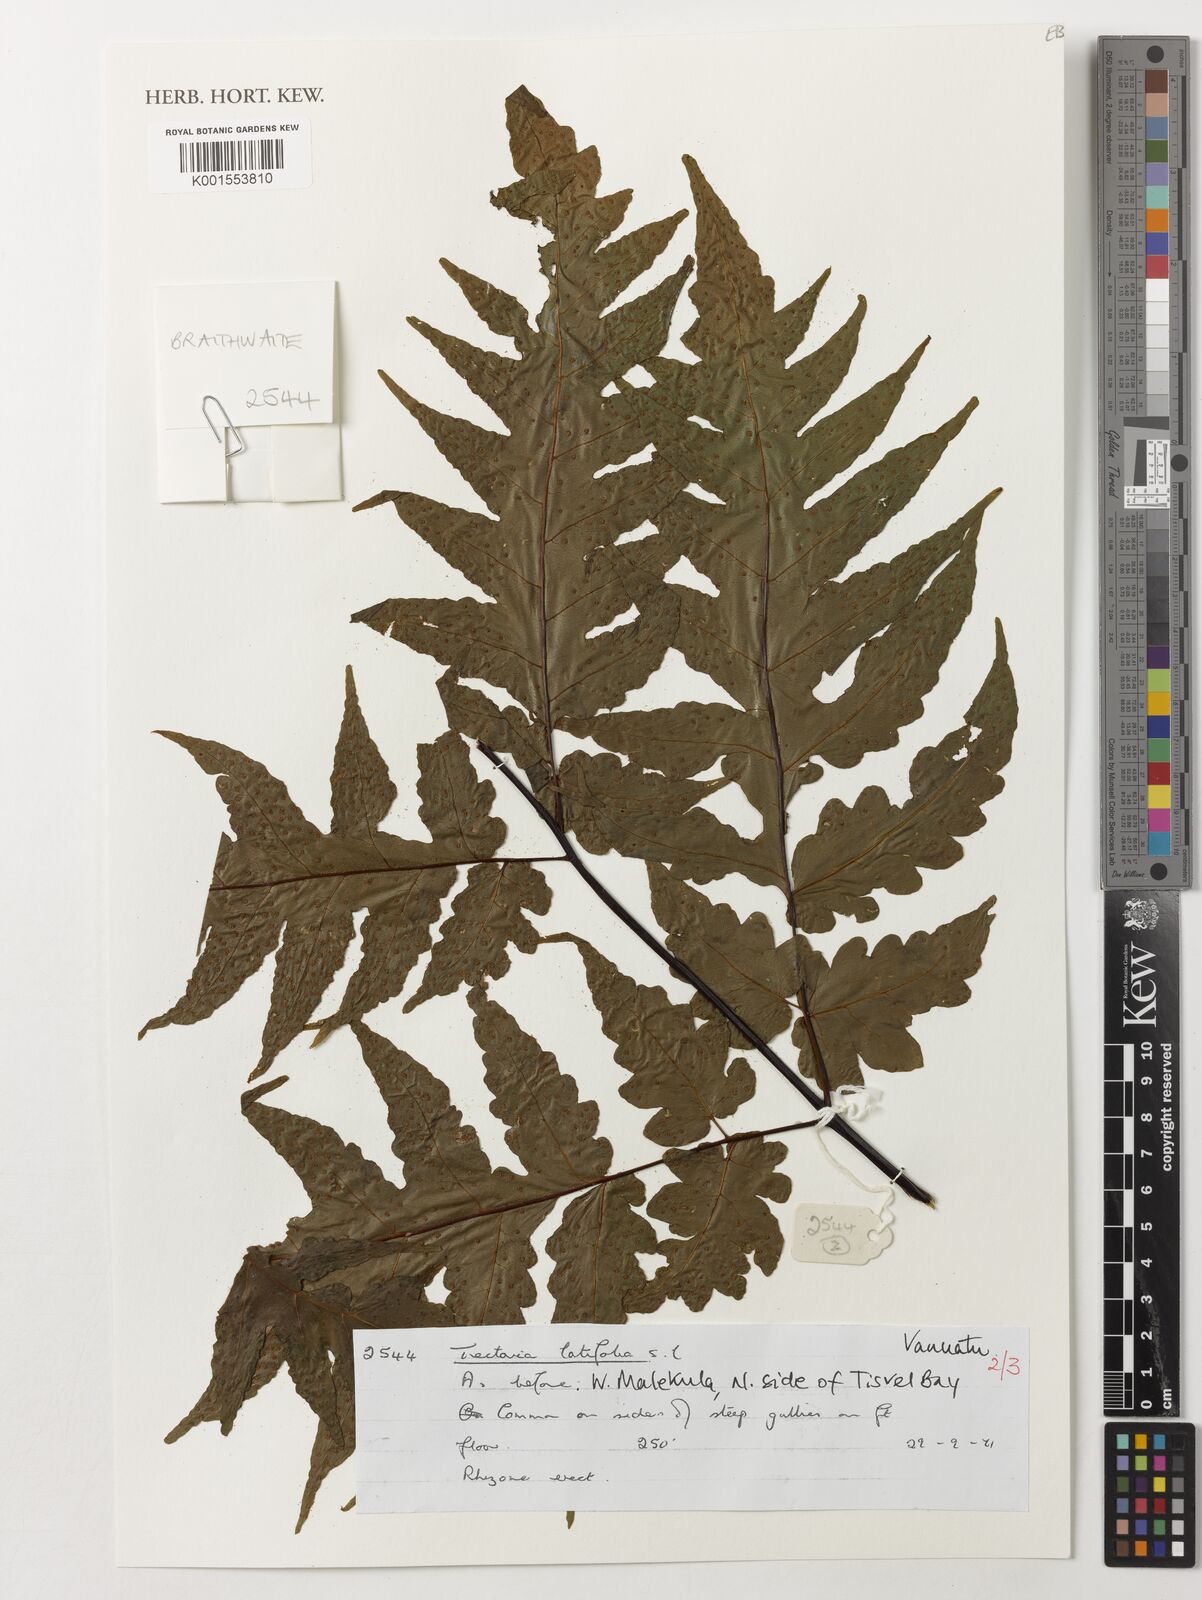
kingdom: Plantae
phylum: Tracheophyta
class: Polypodiopsida
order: Polypodiales
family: Tectariaceae
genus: Tectaria
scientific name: Tectaria
